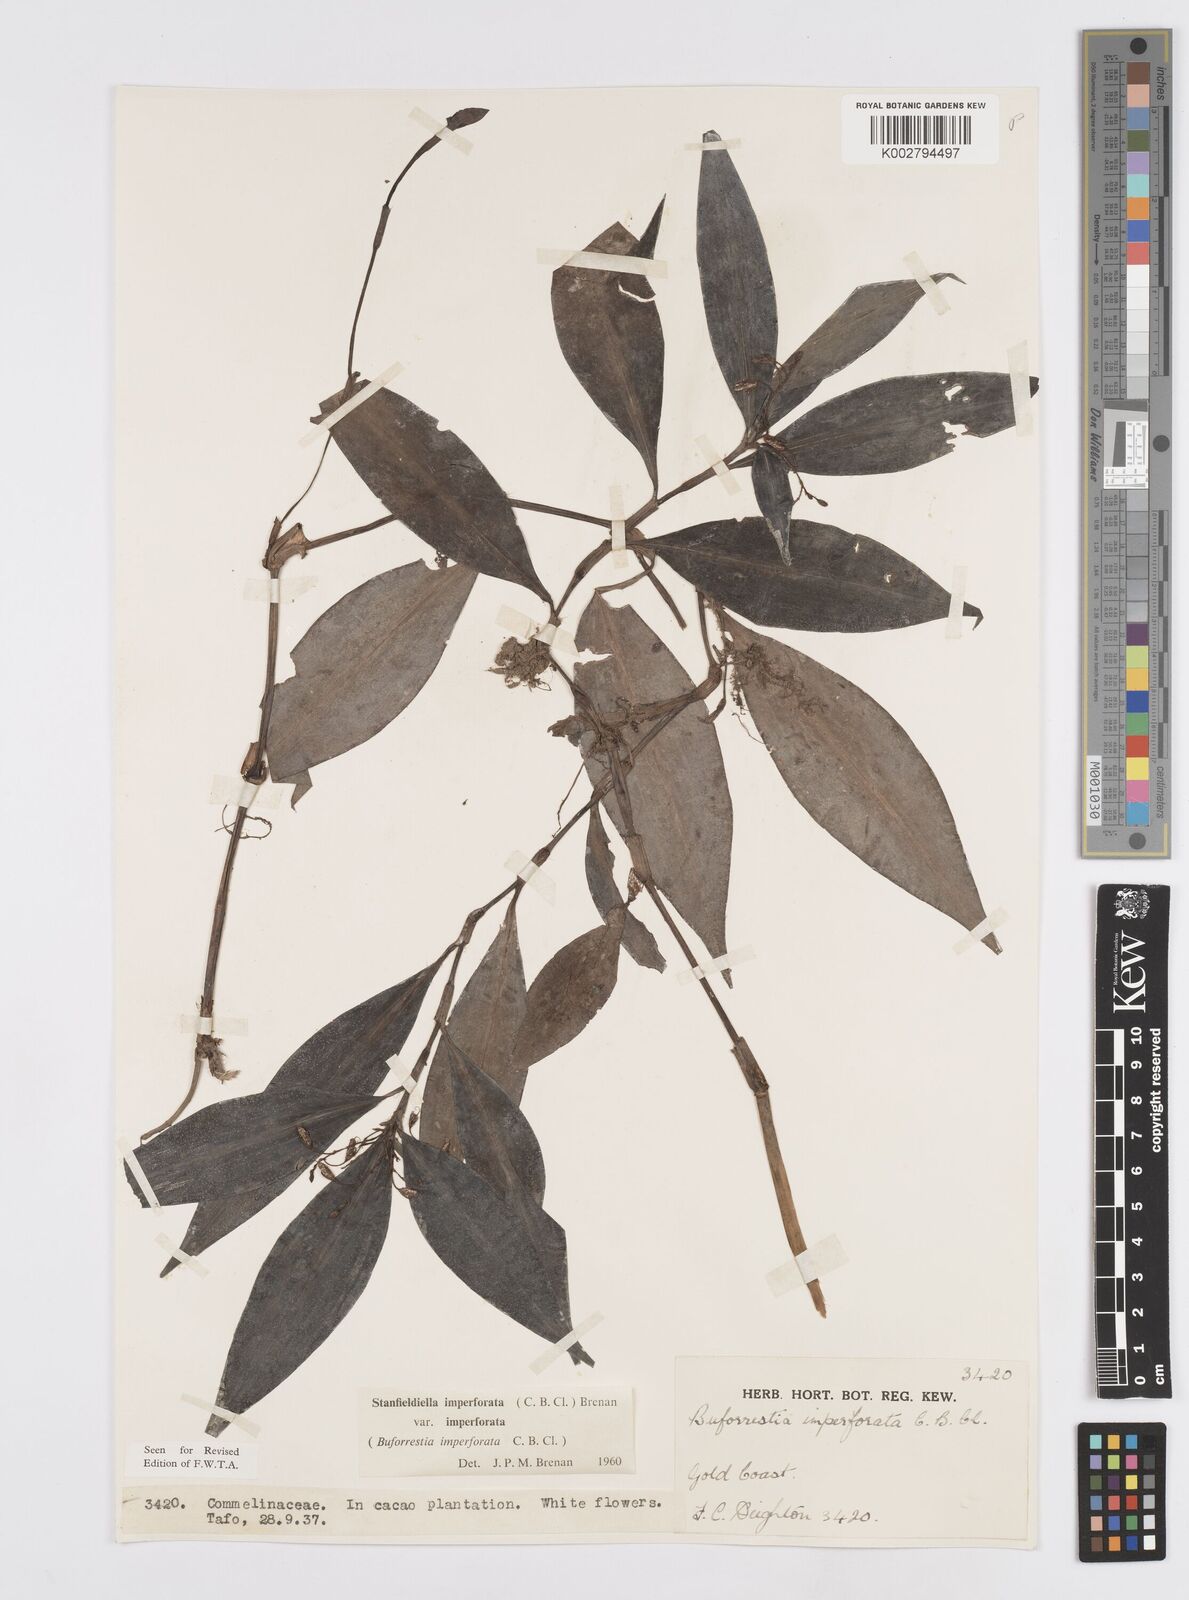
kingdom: Plantae
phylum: Tracheophyta
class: Liliopsida
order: Commelinales
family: Commelinaceae
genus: Stanfieldiella
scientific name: Stanfieldiella imperforata
